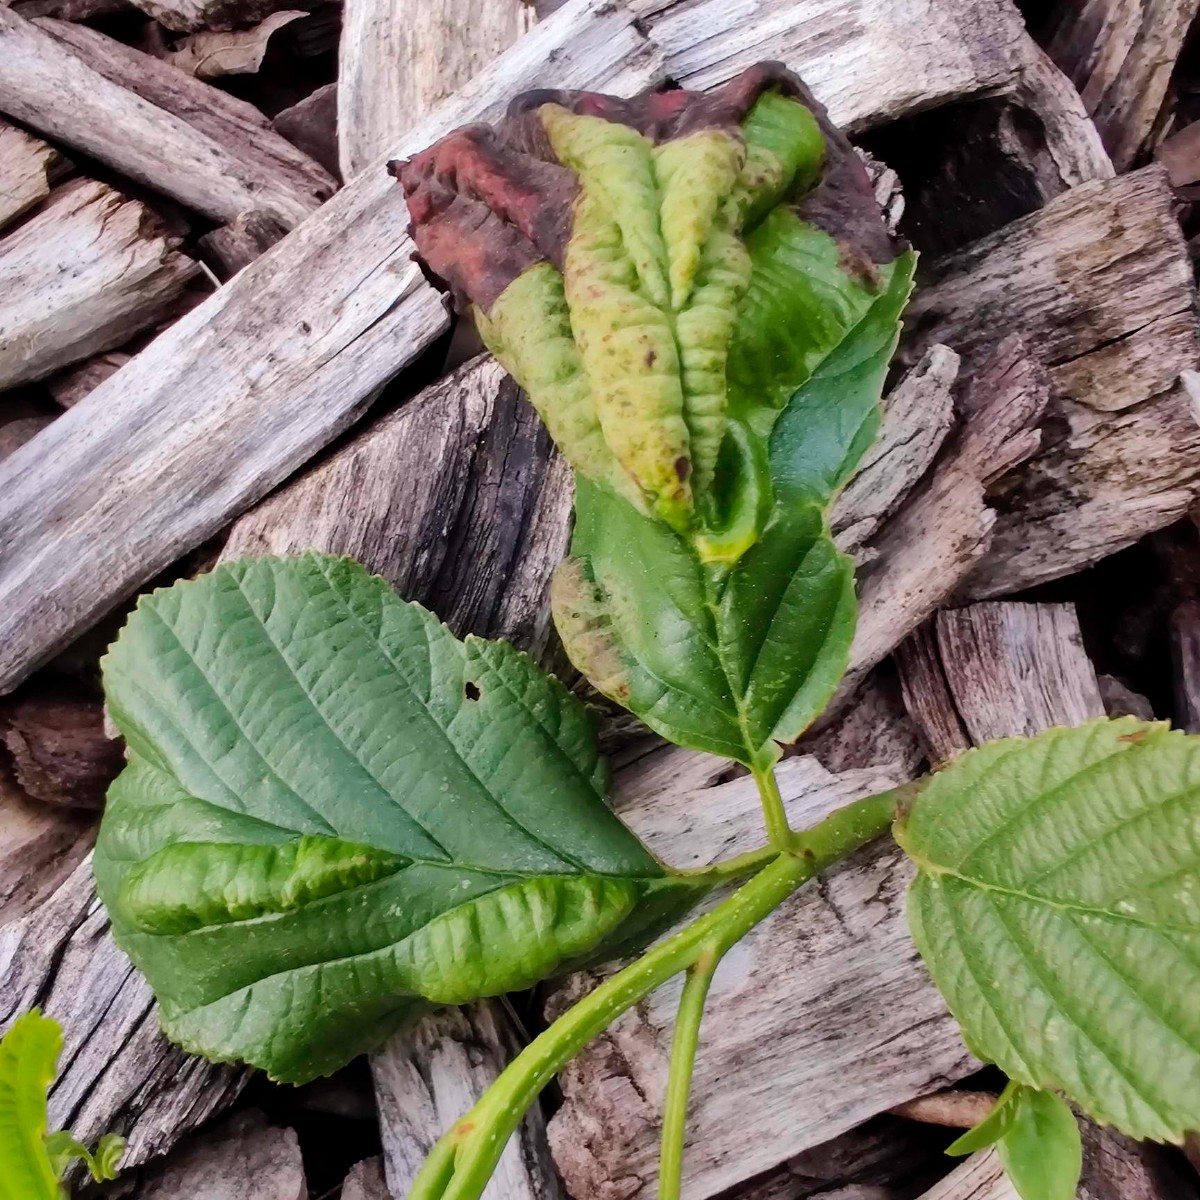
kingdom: Fungi
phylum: Ascomycota
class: Taphrinomycetes
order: Taphrinales
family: Taphrinaceae
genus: Taphrina
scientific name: Taphrina tosquinetii
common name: Alder wrinkle
